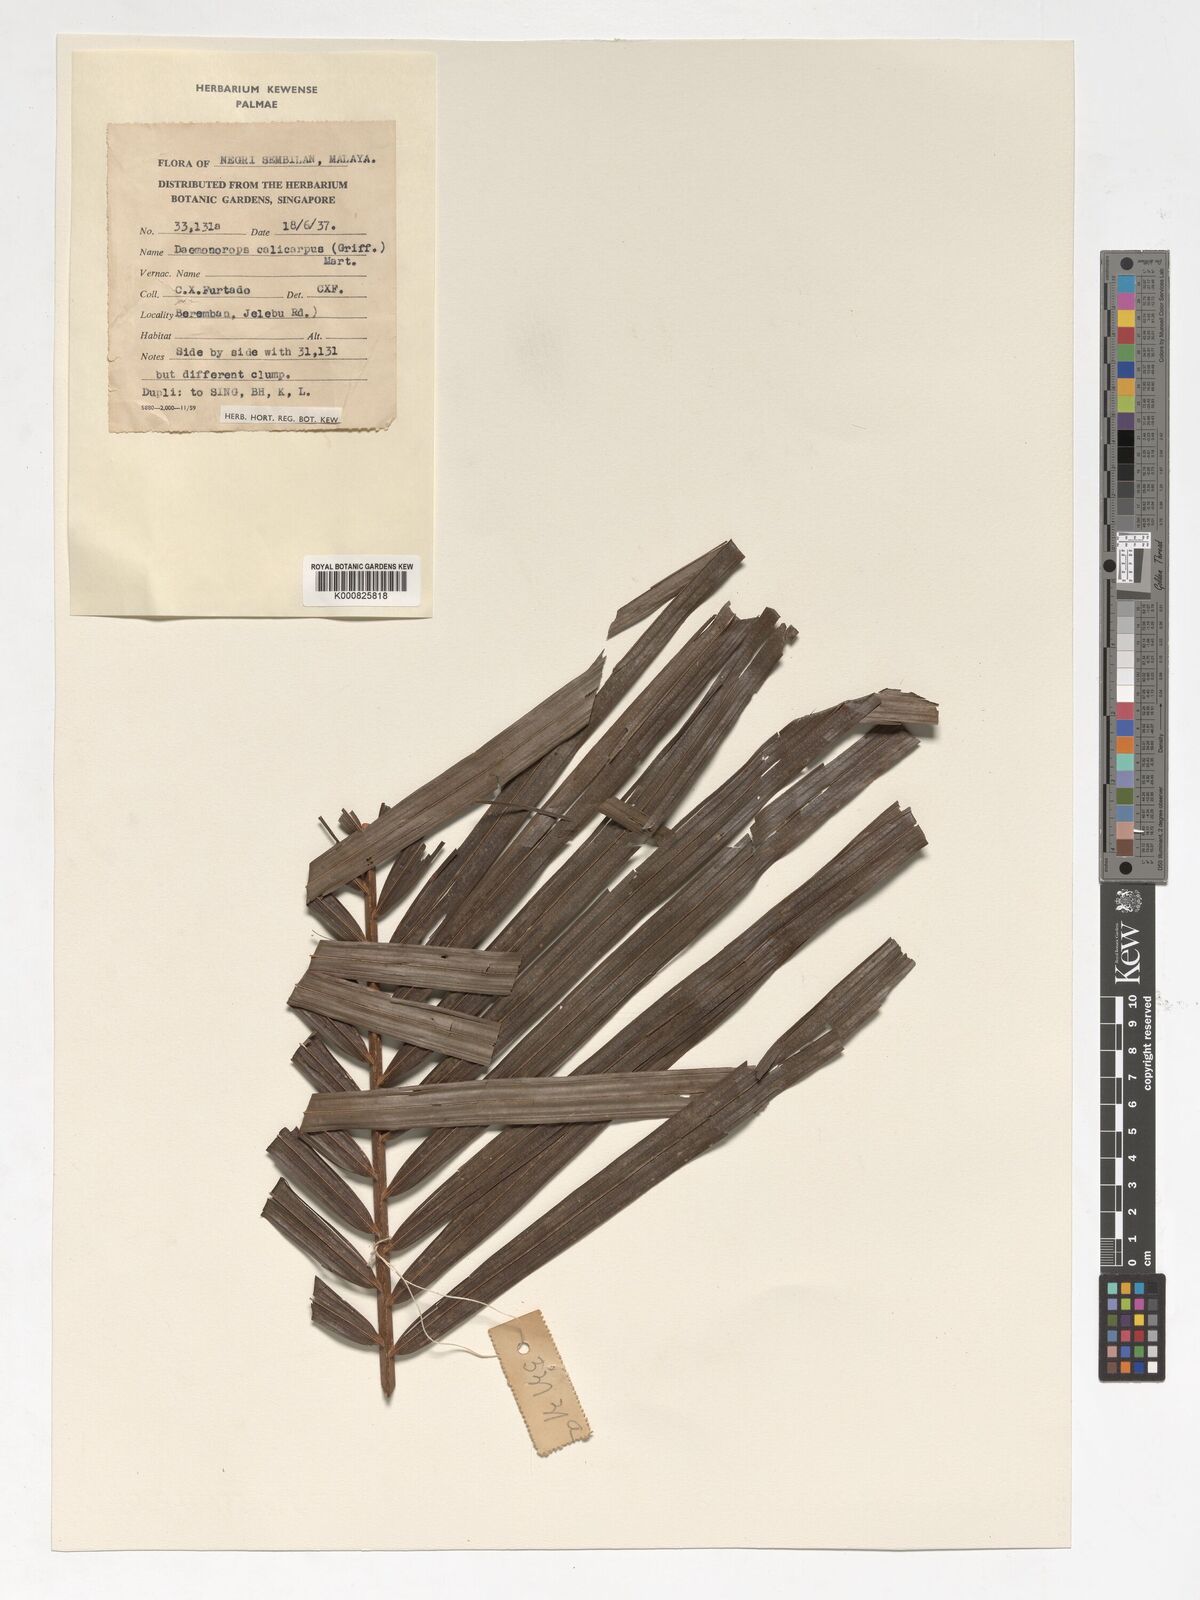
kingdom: Plantae
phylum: Tracheophyta
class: Liliopsida
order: Arecales
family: Arecaceae
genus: Calamus
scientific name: Calamus calicarpus
